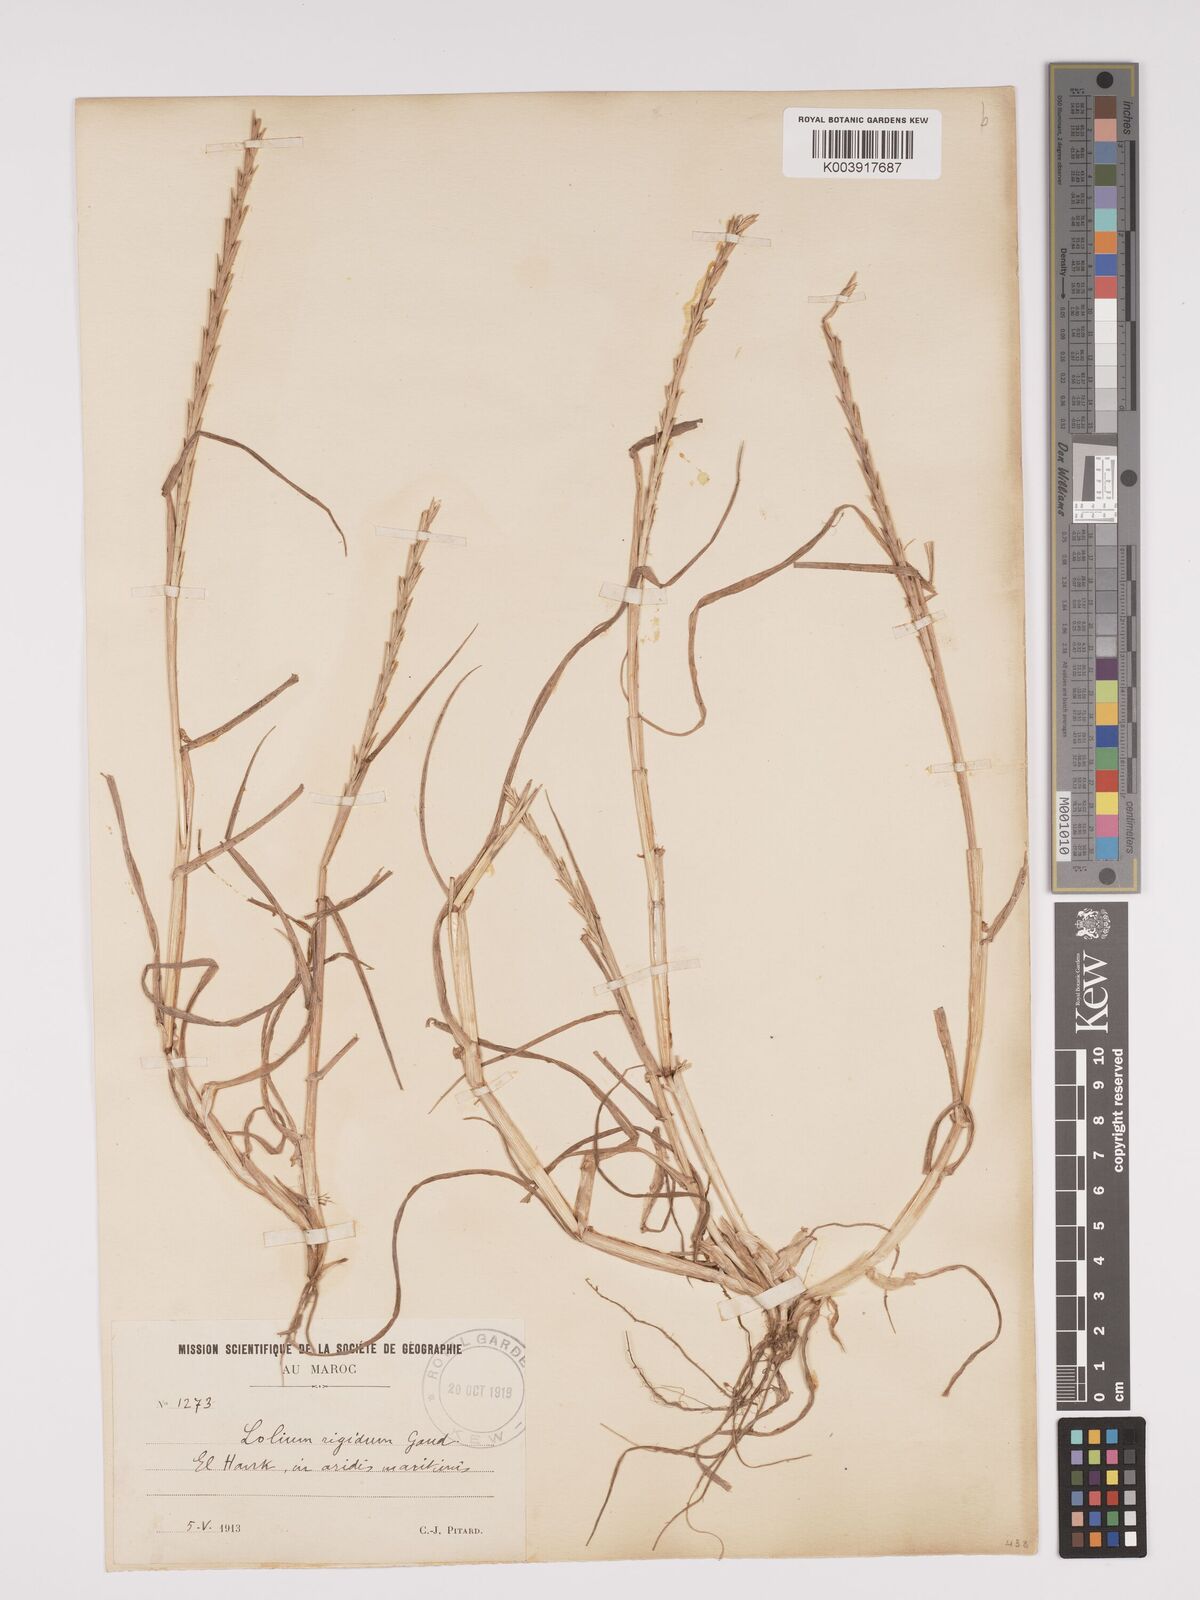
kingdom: Plantae
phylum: Tracheophyta
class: Liliopsida
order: Poales
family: Poaceae
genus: Lolium
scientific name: Lolium rigidum
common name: Wimmera ryegrass
